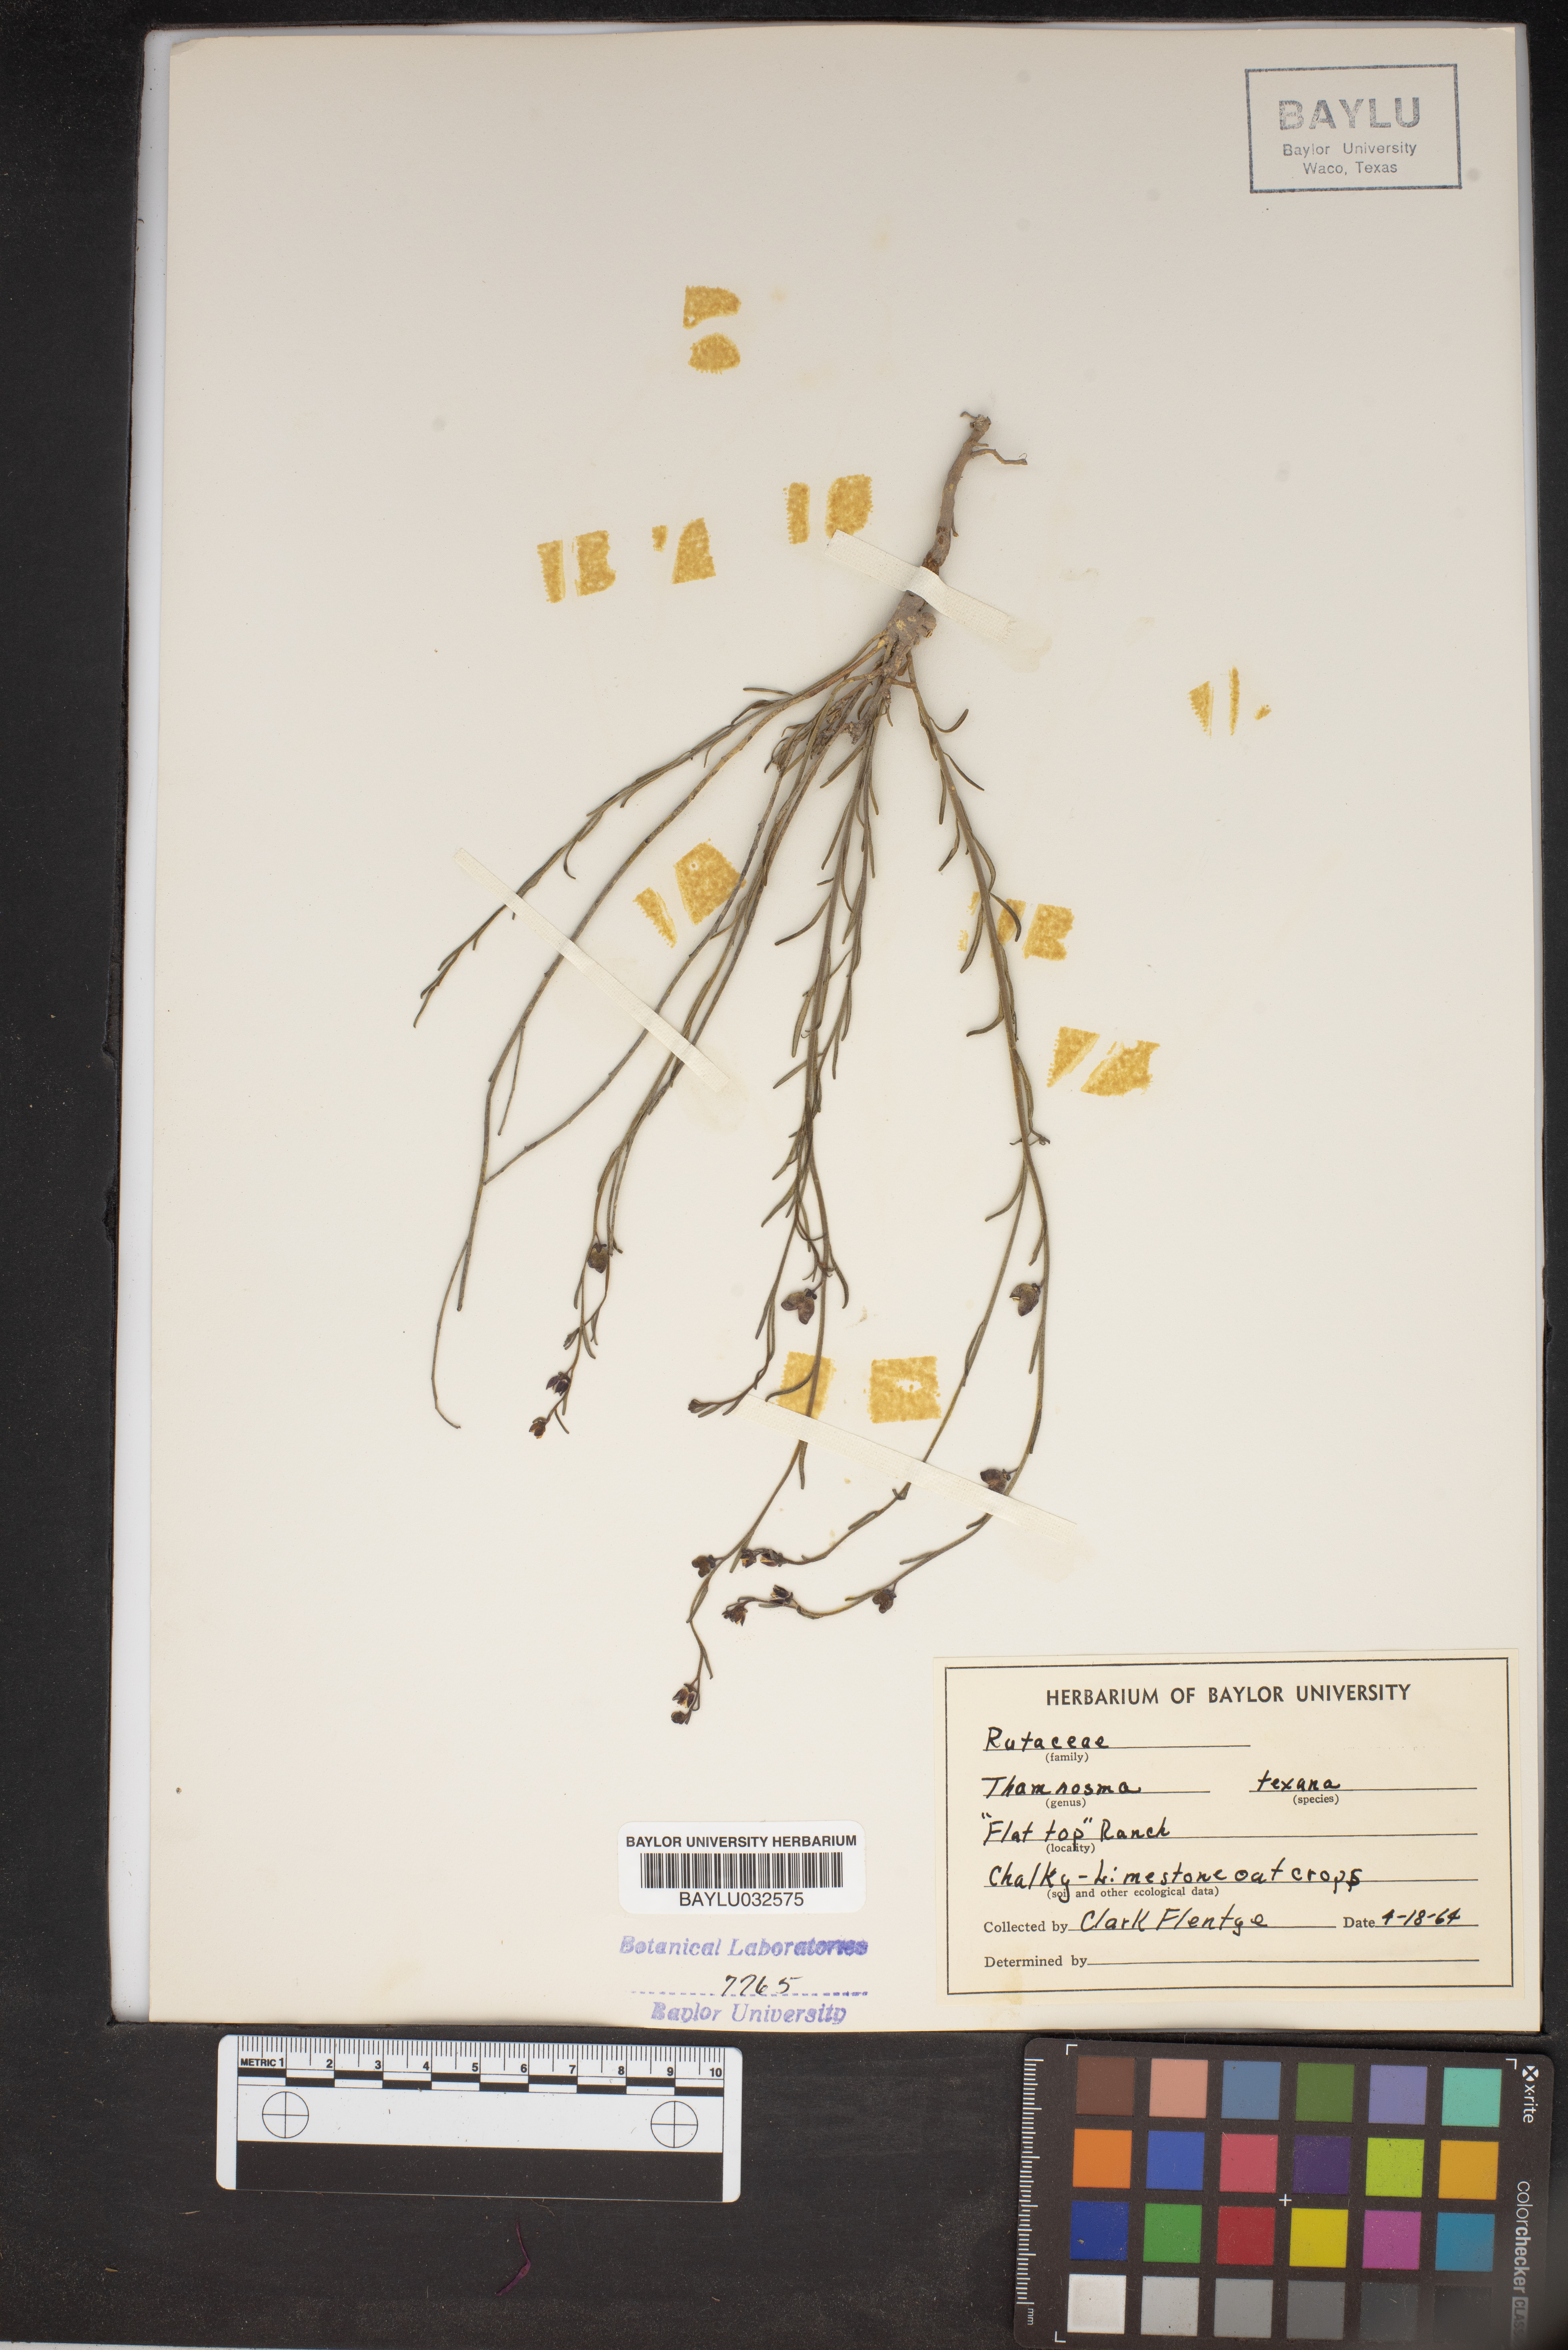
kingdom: Plantae
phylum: Tracheophyta
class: Magnoliopsida
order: Sapindales
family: Rutaceae
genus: Thamnosma
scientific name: Thamnosma texana
